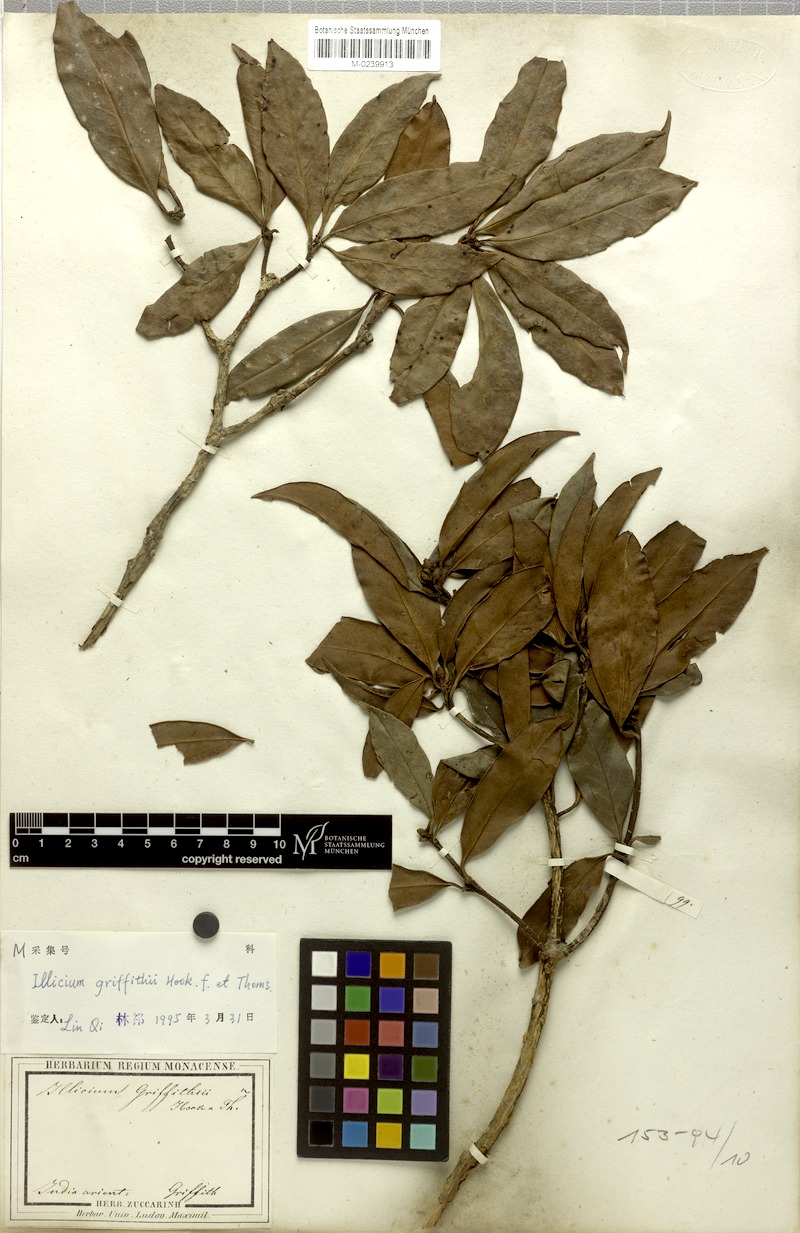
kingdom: Plantae
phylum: Tracheophyta
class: Magnoliopsida
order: Austrobaileyales
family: Schisandraceae
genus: Illicium
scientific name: Illicium griffithii
